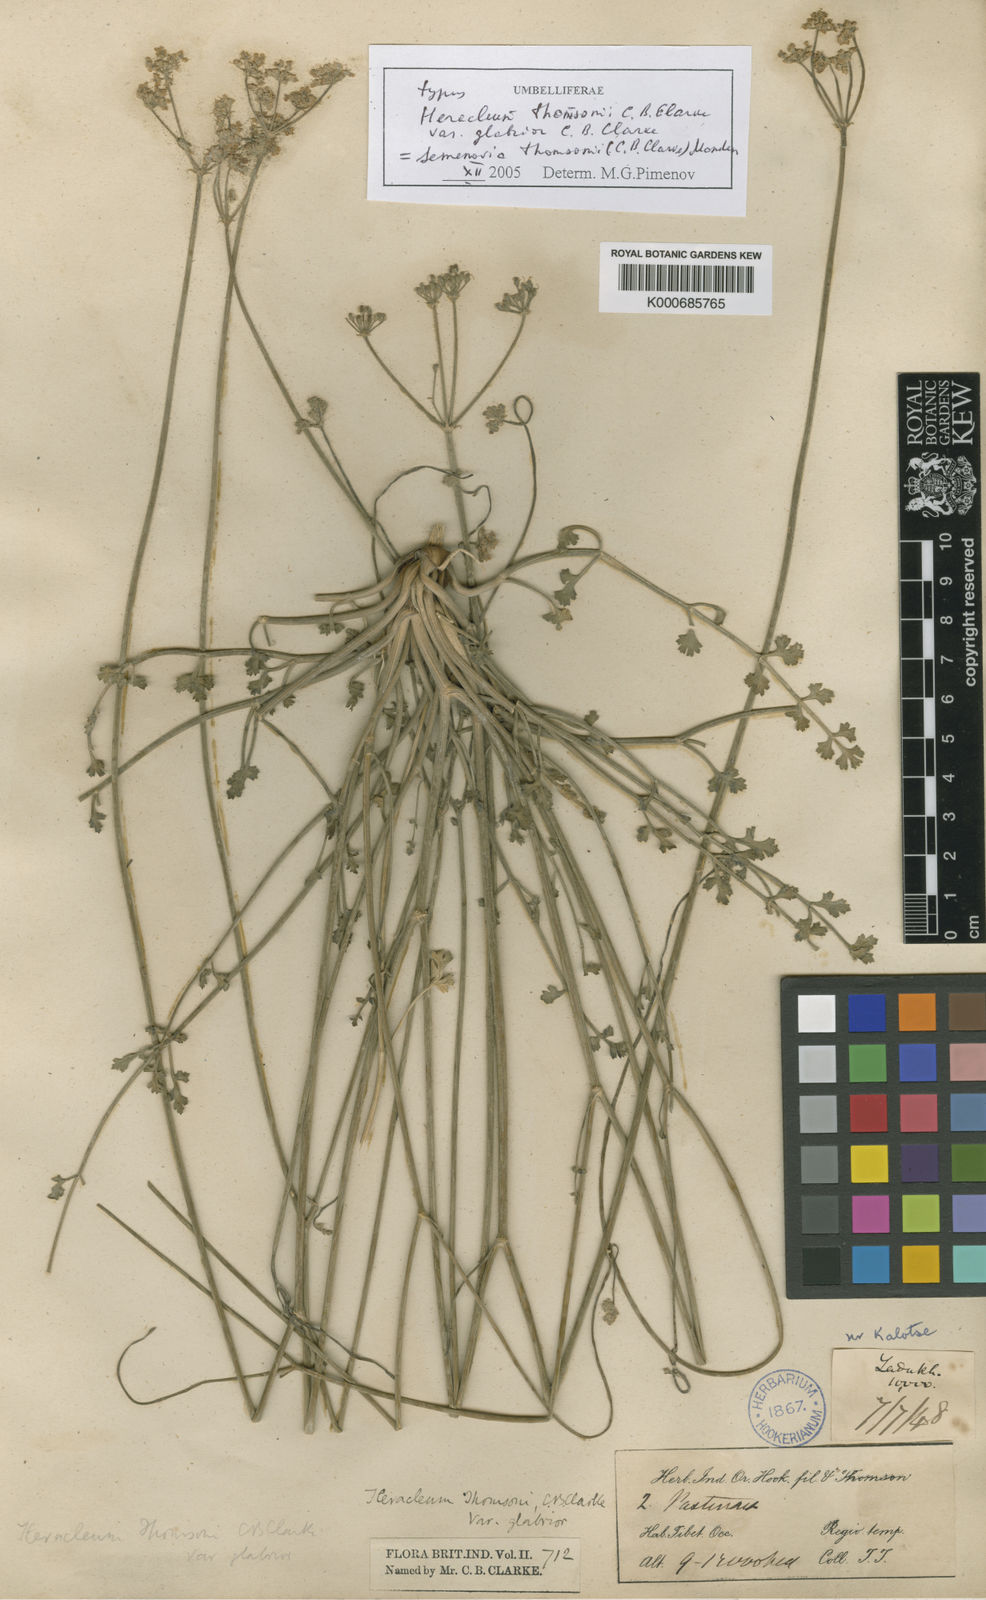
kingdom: Plantae
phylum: Tracheophyta
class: Magnoliopsida
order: Apiales
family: Apiaceae
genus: Semenovia
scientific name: Semenovia thomsonii
